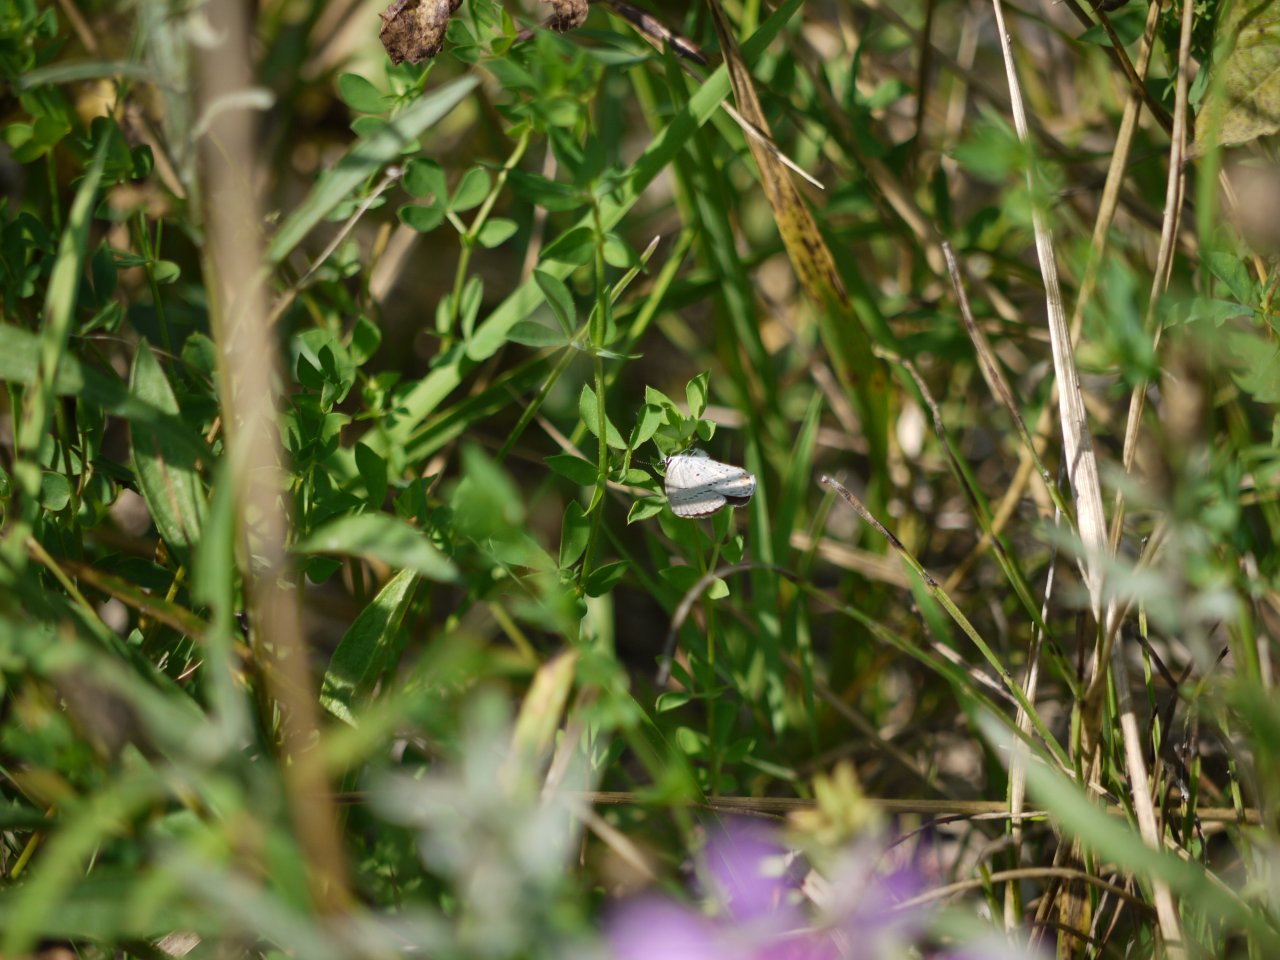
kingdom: Animalia
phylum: Arthropoda
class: Insecta
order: Lepidoptera
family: Lycaenidae
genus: Elkalyce
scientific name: Elkalyce comyntas
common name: Eastern Tailed-Blue
